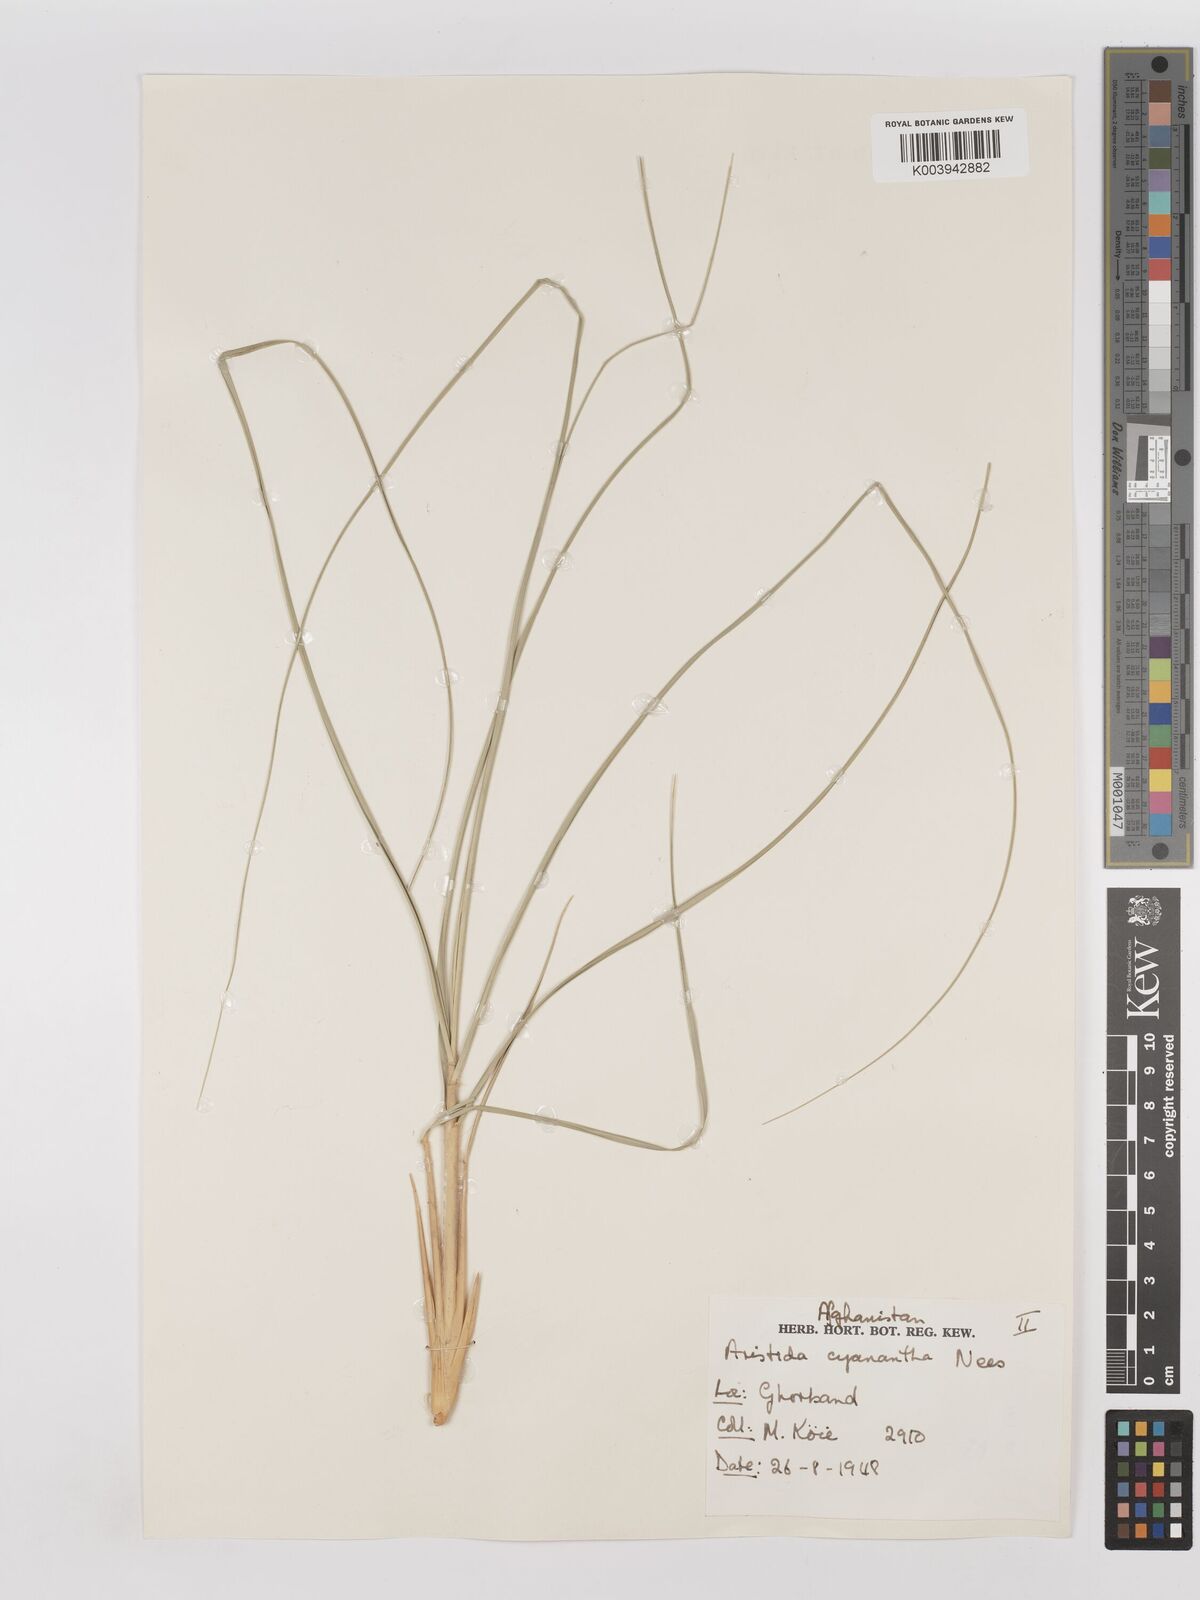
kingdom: Plantae
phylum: Tracheophyta
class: Liliopsida
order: Poales
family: Poaceae
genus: Aristida
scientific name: Aristida cyanantha
